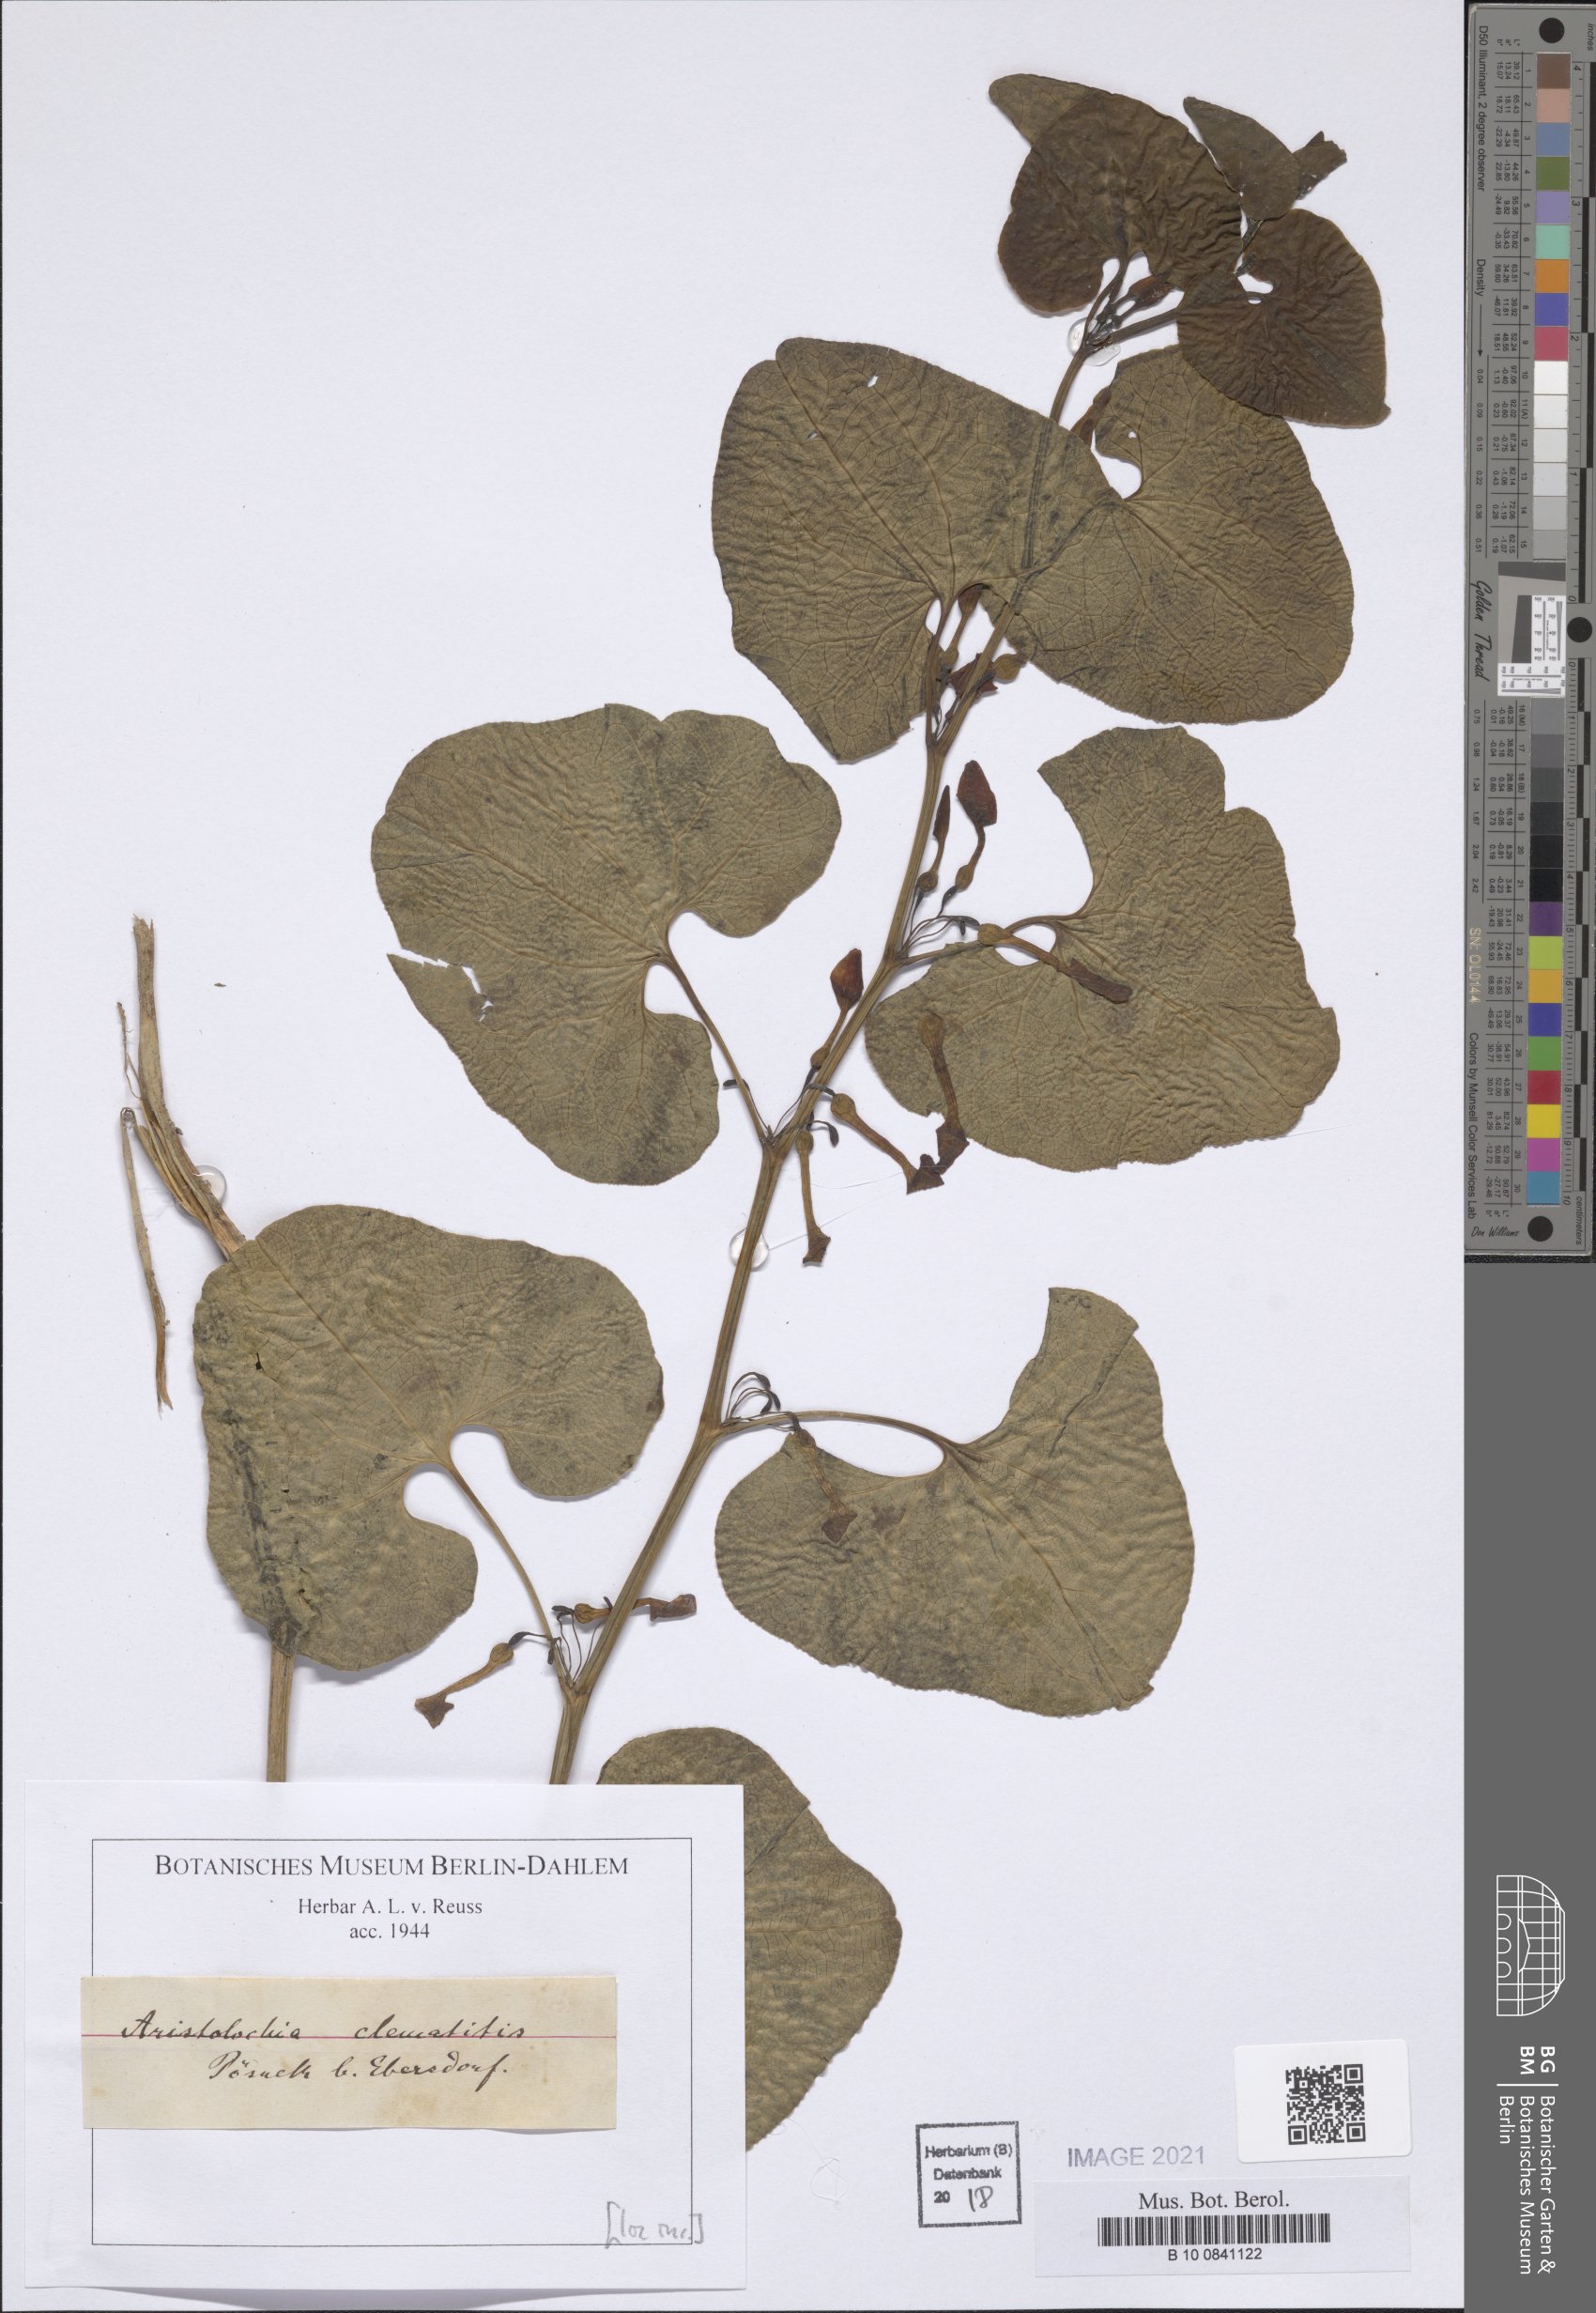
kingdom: Plantae
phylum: Tracheophyta
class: Magnoliopsida
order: Piperales
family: Aristolochiaceae
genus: Aristolochia
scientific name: Aristolochia clematitis
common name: Birthwort
